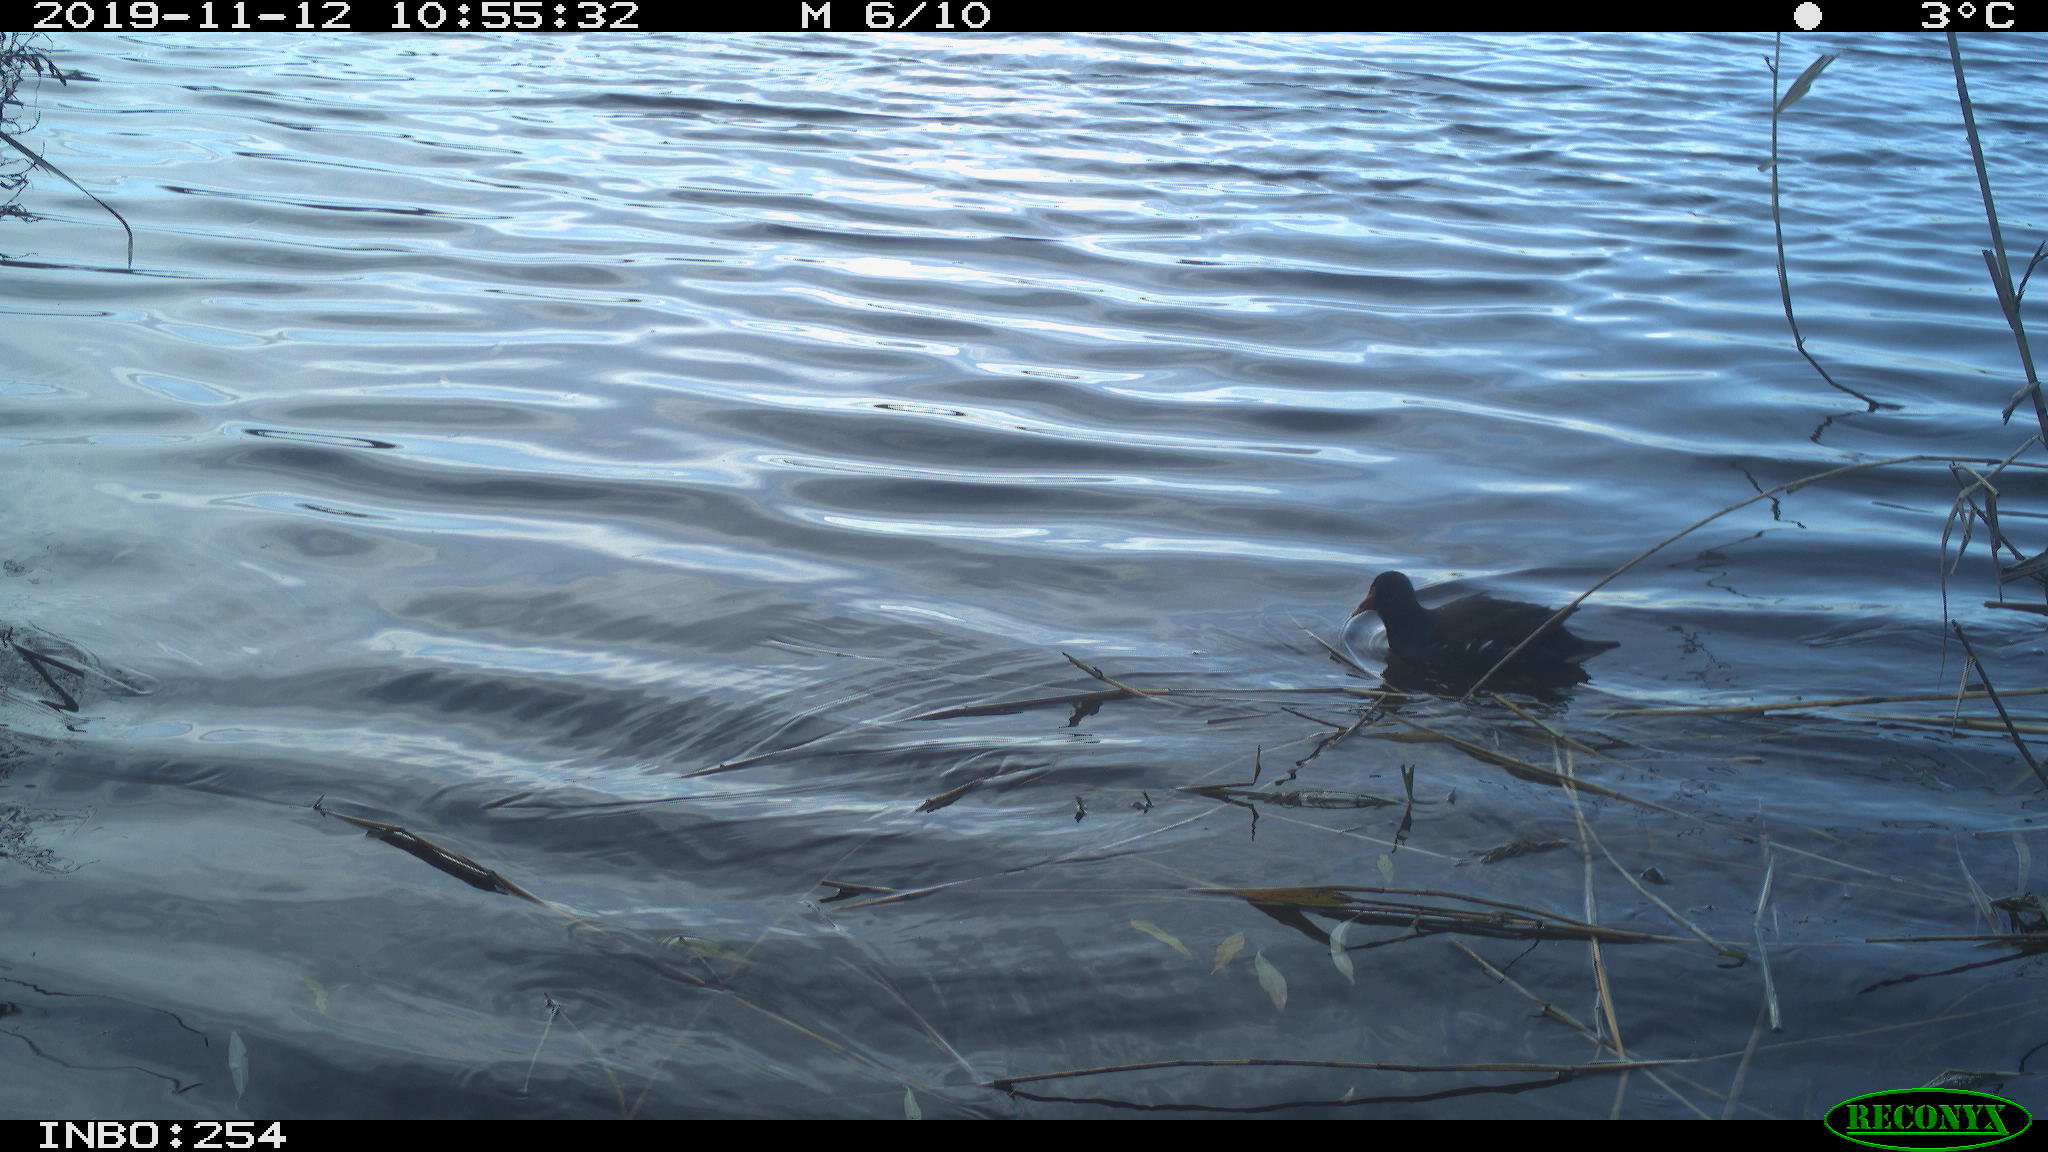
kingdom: Animalia
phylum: Chordata
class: Aves
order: Gruiformes
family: Rallidae
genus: Gallinula
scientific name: Gallinula chloropus
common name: Common moorhen
